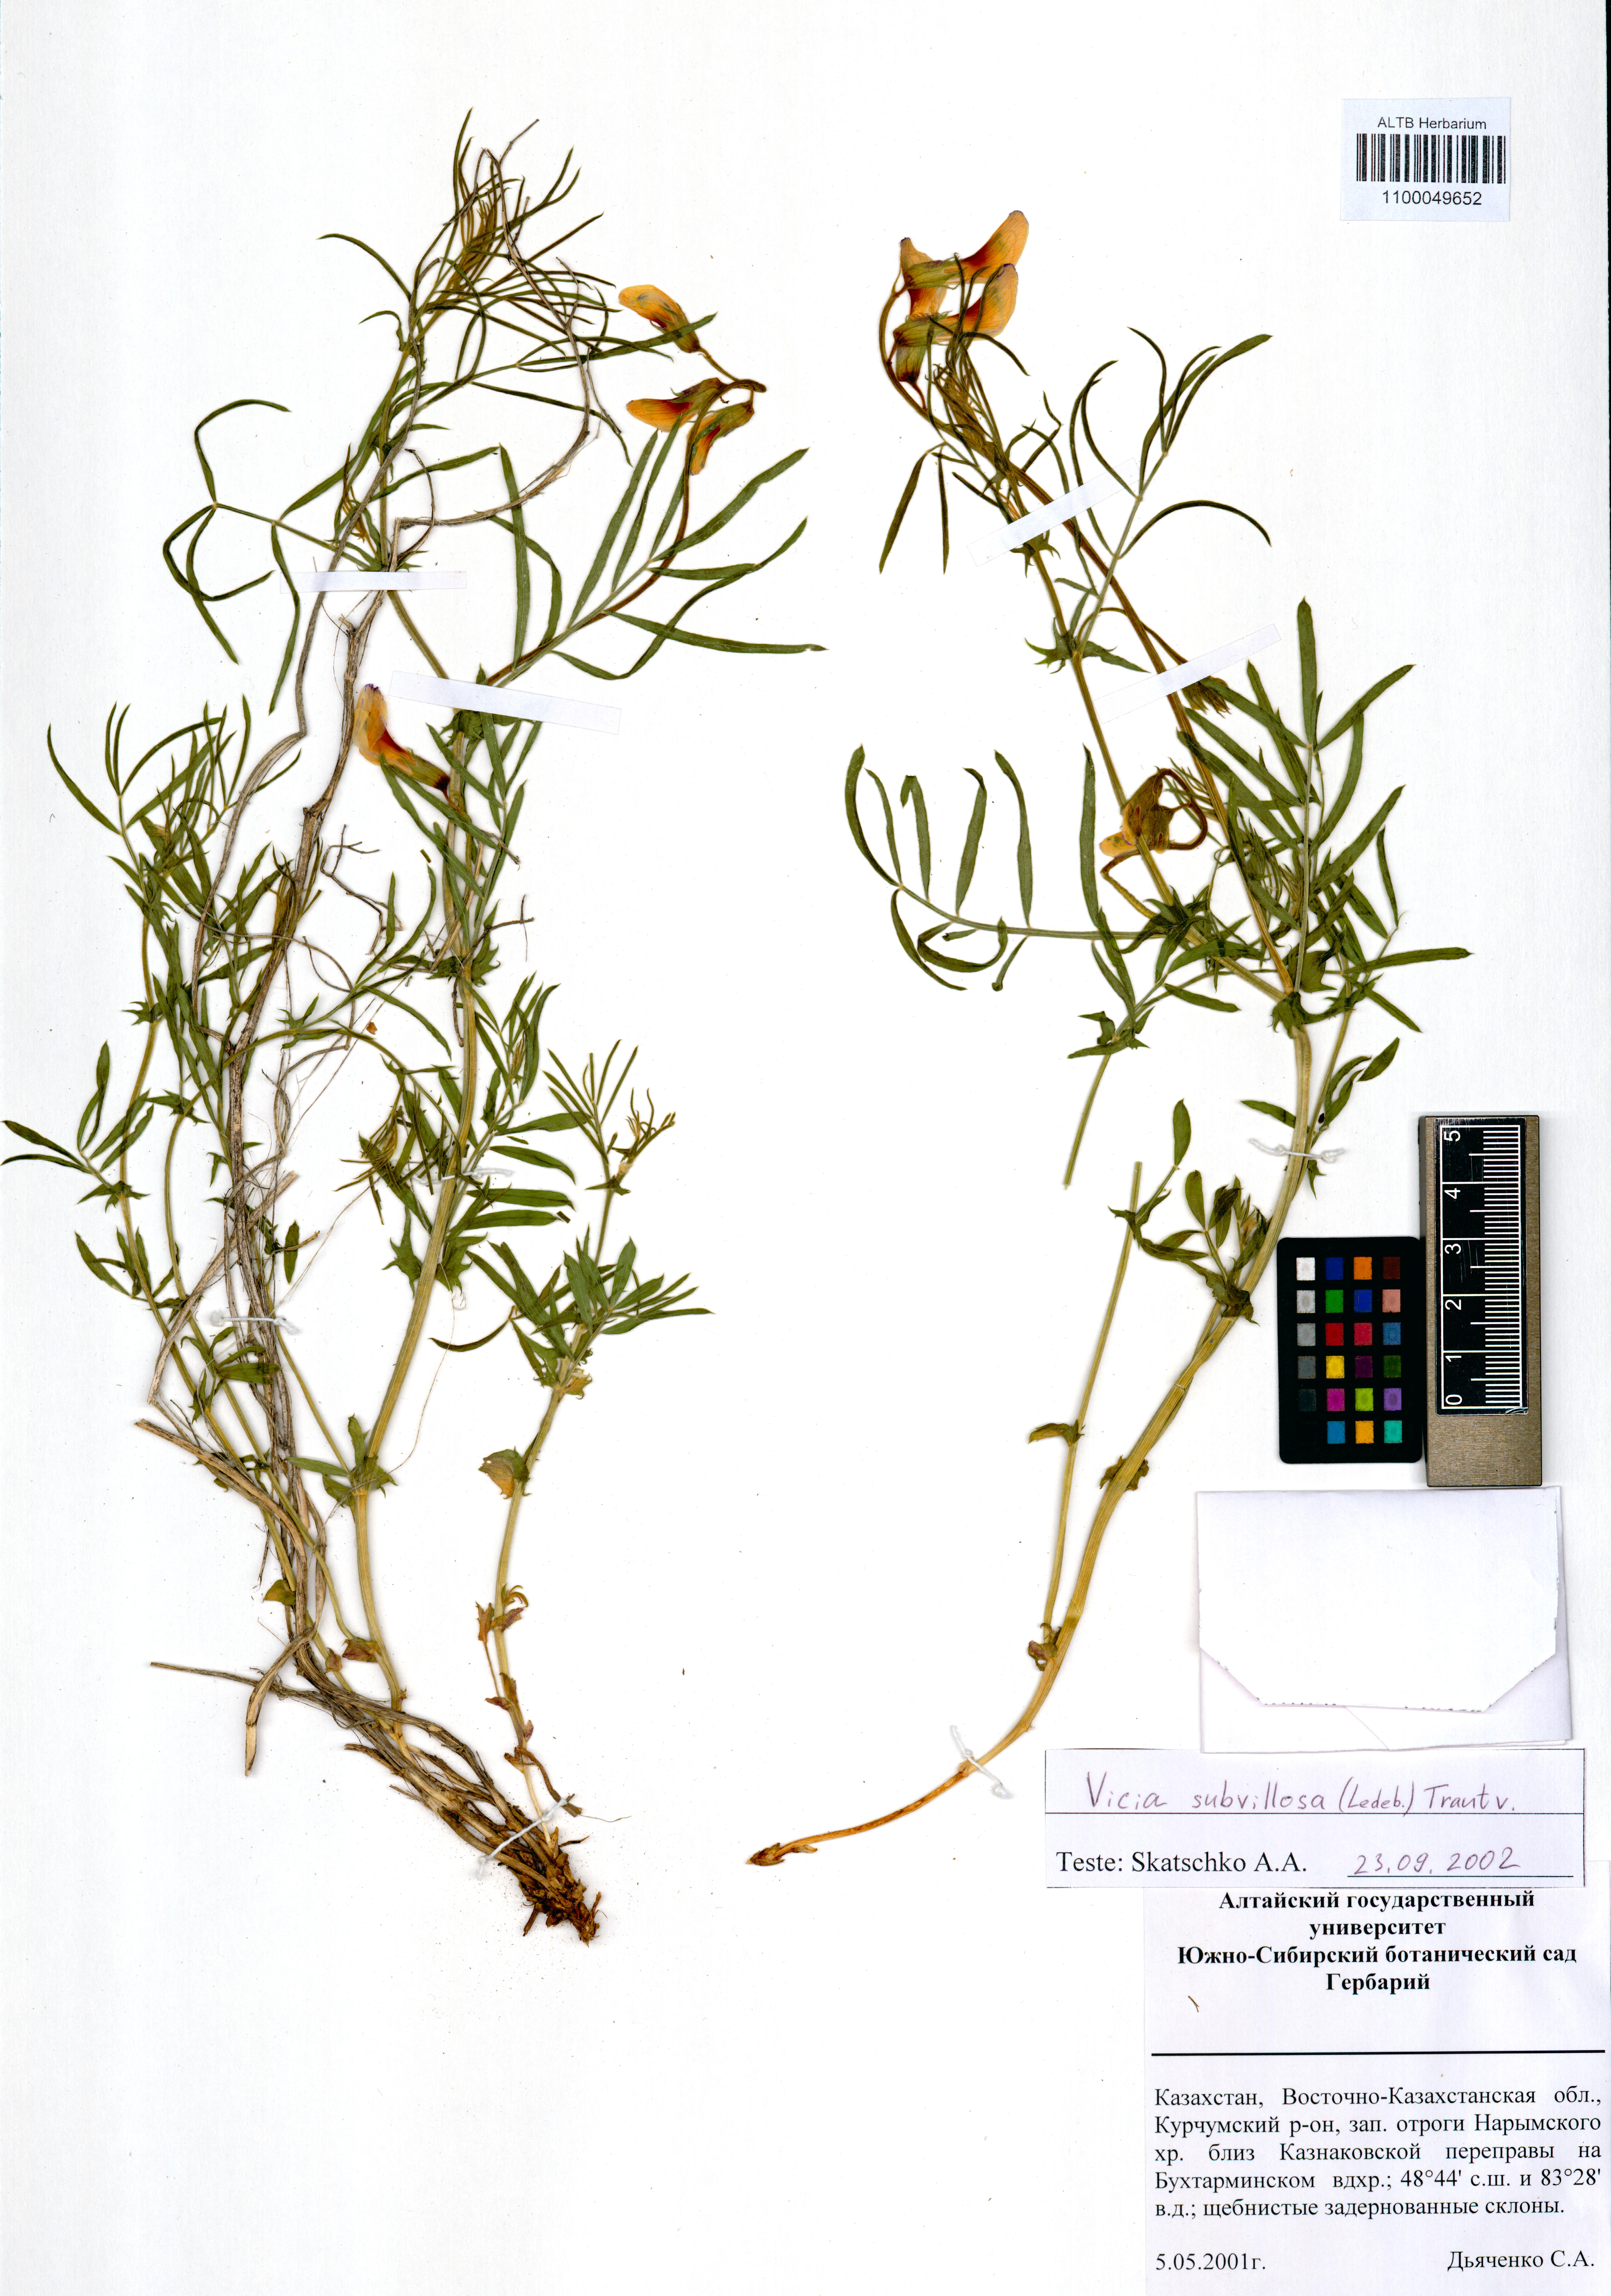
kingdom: Plantae
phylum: Tracheophyta
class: Magnoliopsida
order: Fabales
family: Fabaceae
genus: Vicia
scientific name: Vicia subvillosa
